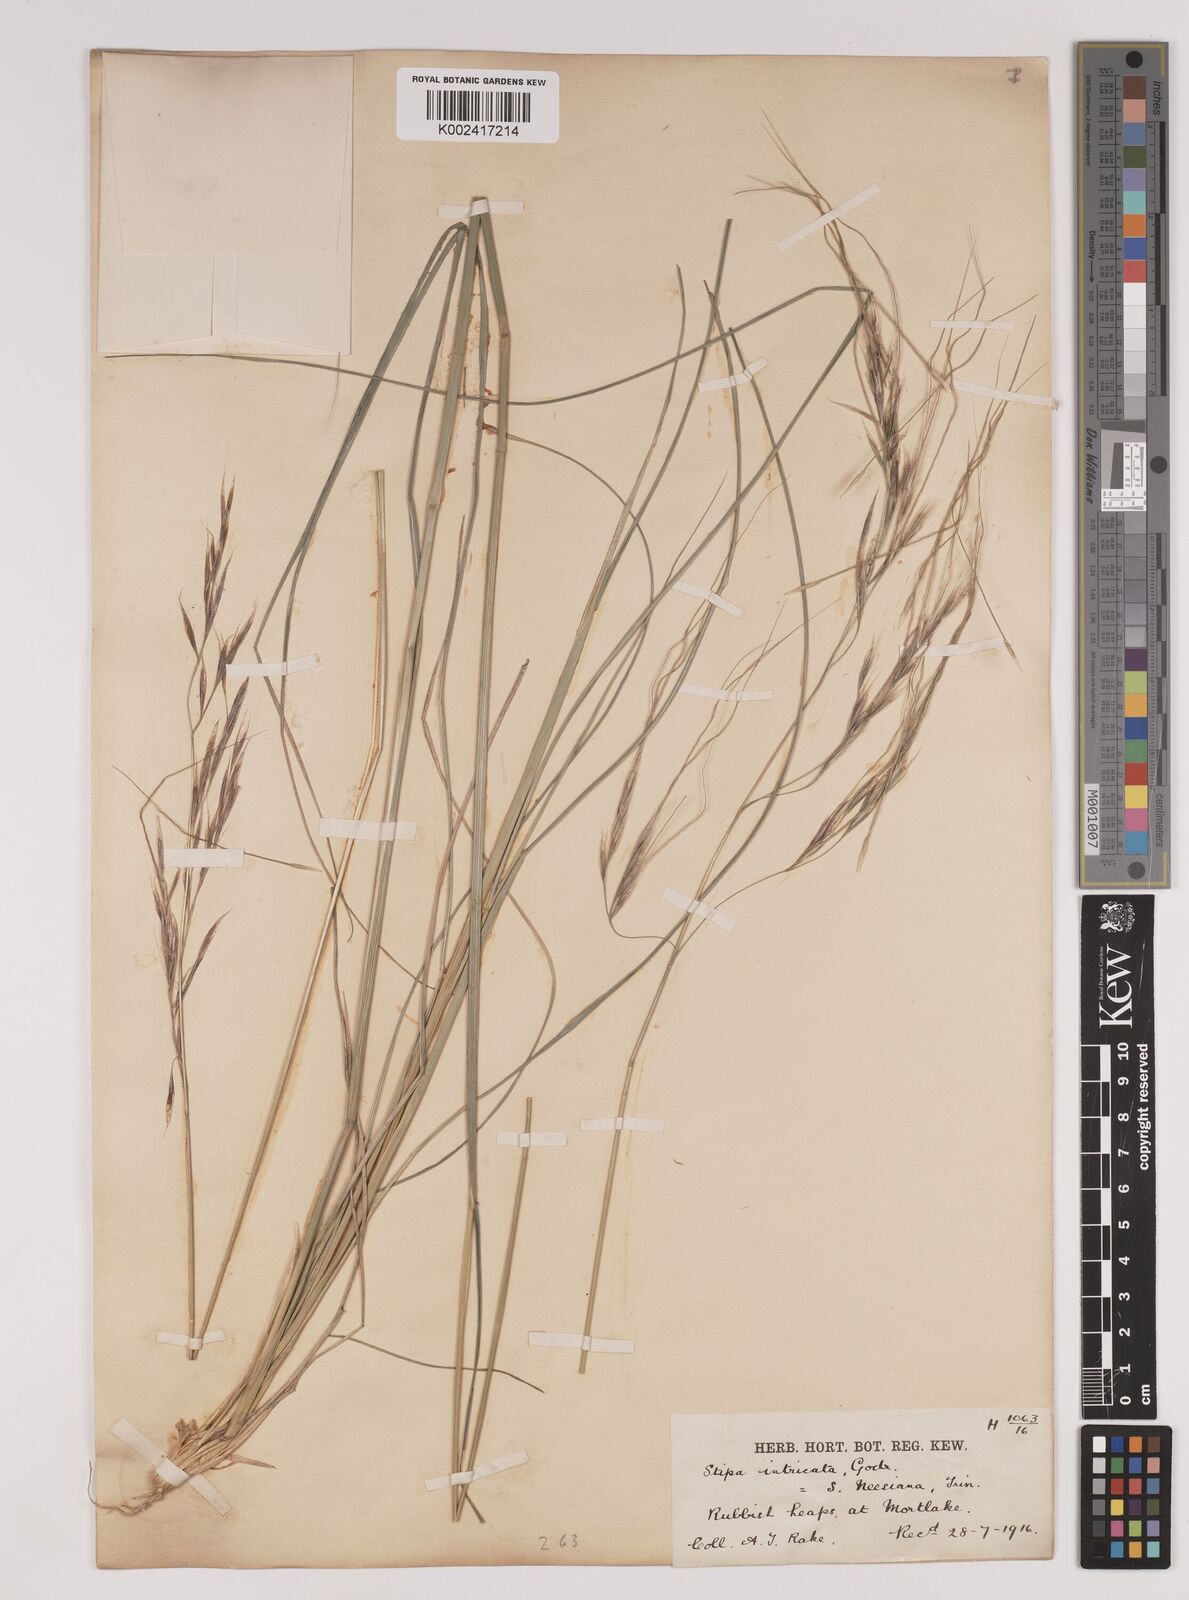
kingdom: Plantae
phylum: Tracheophyta
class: Liliopsida
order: Poales
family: Poaceae
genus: Nassella
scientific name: Nassella neesiana
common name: American needle-grass
